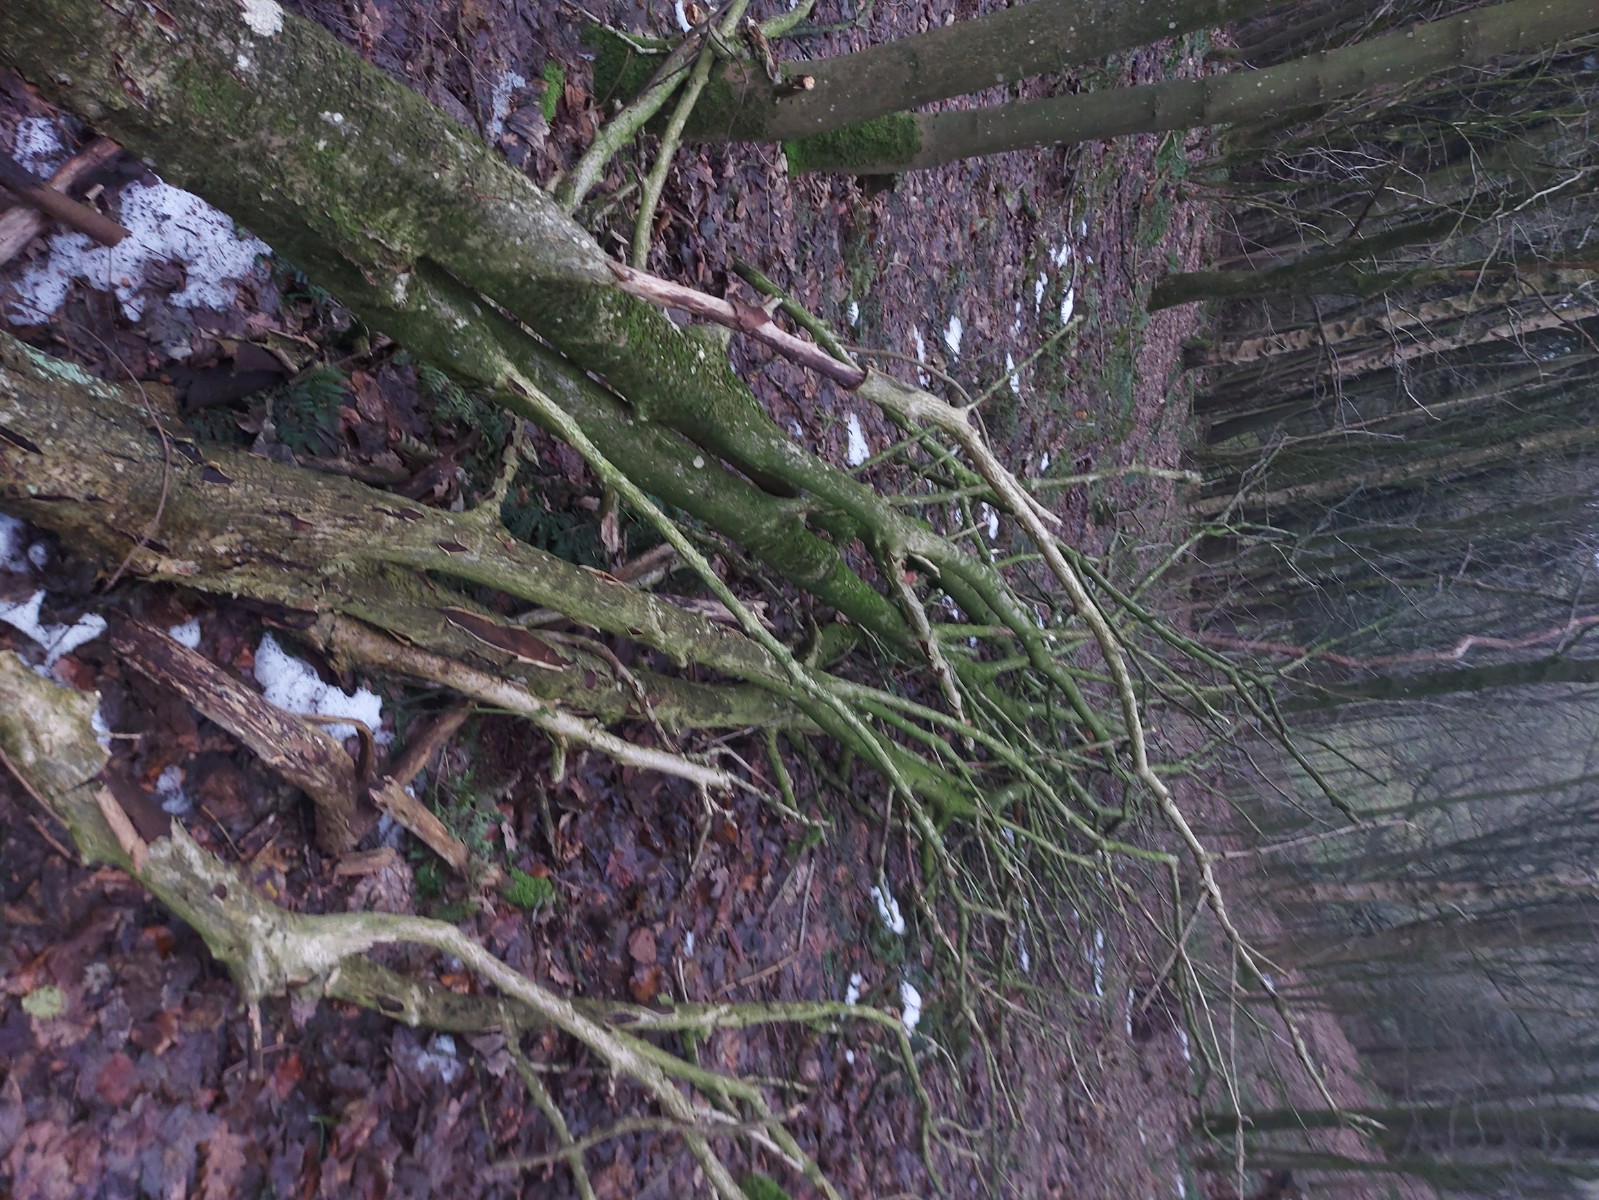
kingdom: Fungi
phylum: Basidiomycota
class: Agaricomycetes
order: Polyporales
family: Phanerochaetaceae
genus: Hapalopilus
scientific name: Hapalopilus rutilans
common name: rødlig okkerporesvamp
